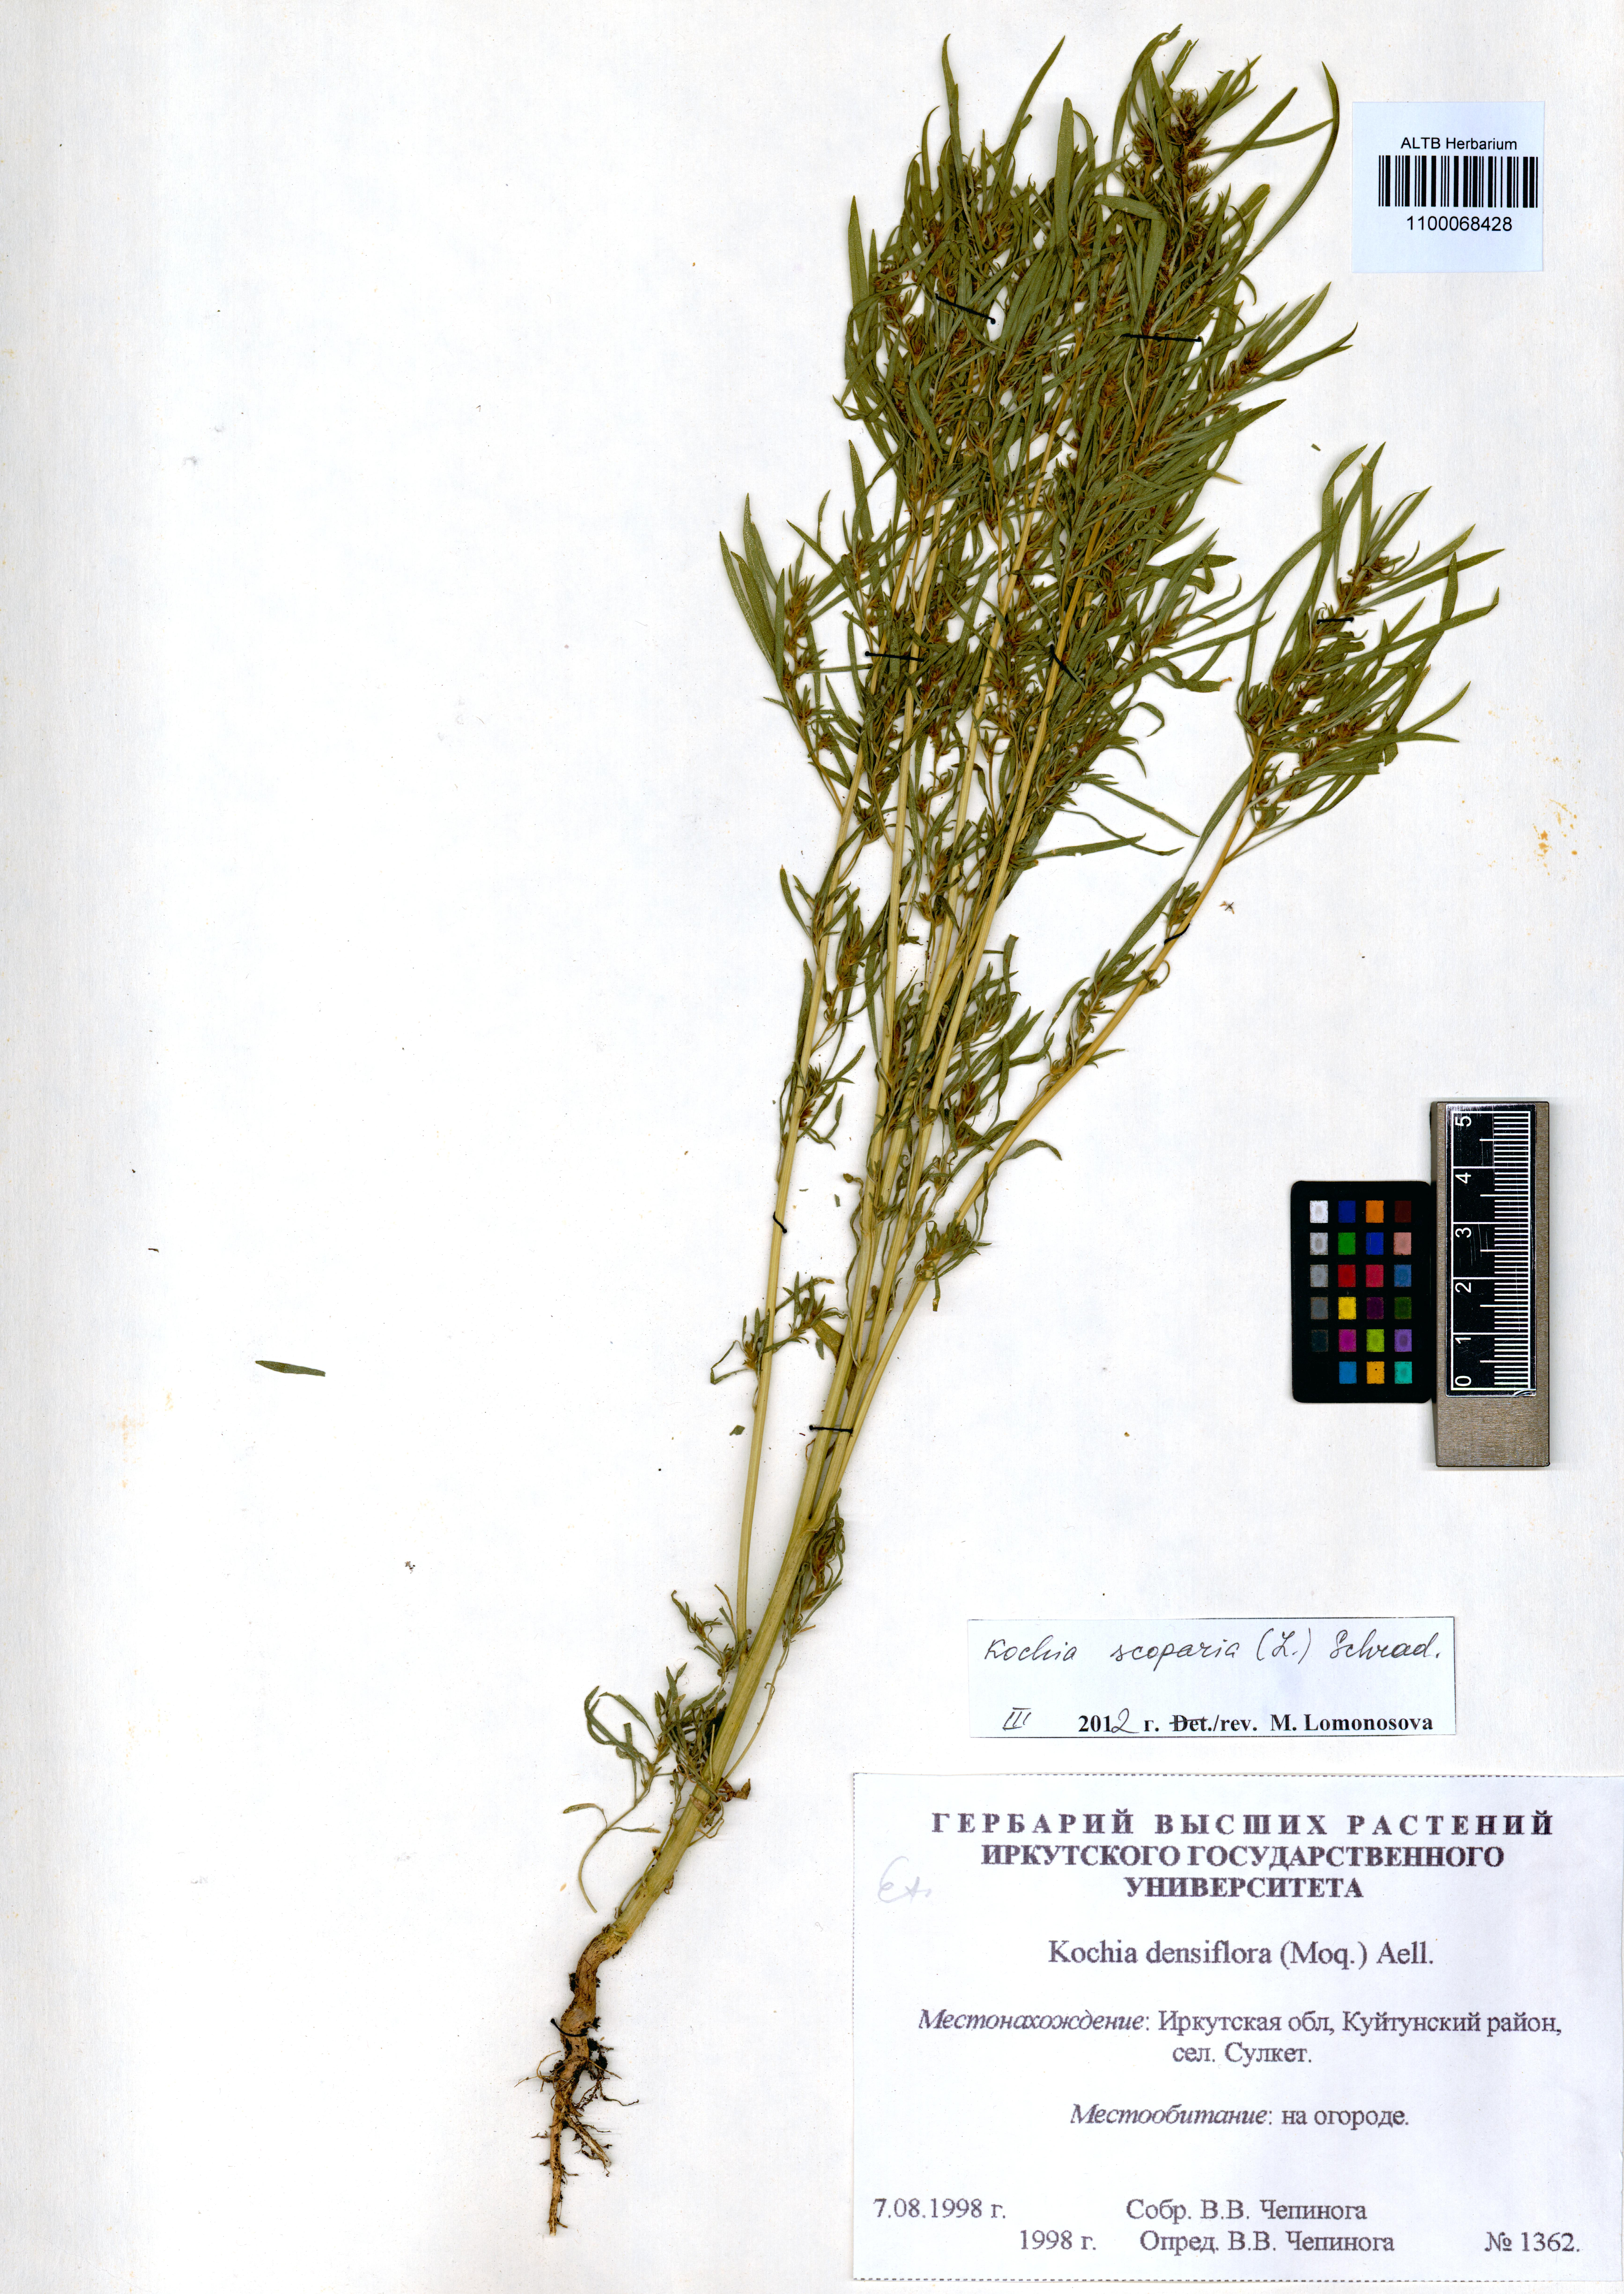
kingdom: Plantae
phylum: Tracheophyta
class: Magnoliopsida
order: Caryophyllales
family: Amaranthaceae
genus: Bassia
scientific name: Bassia scoparia
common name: Belvedere
